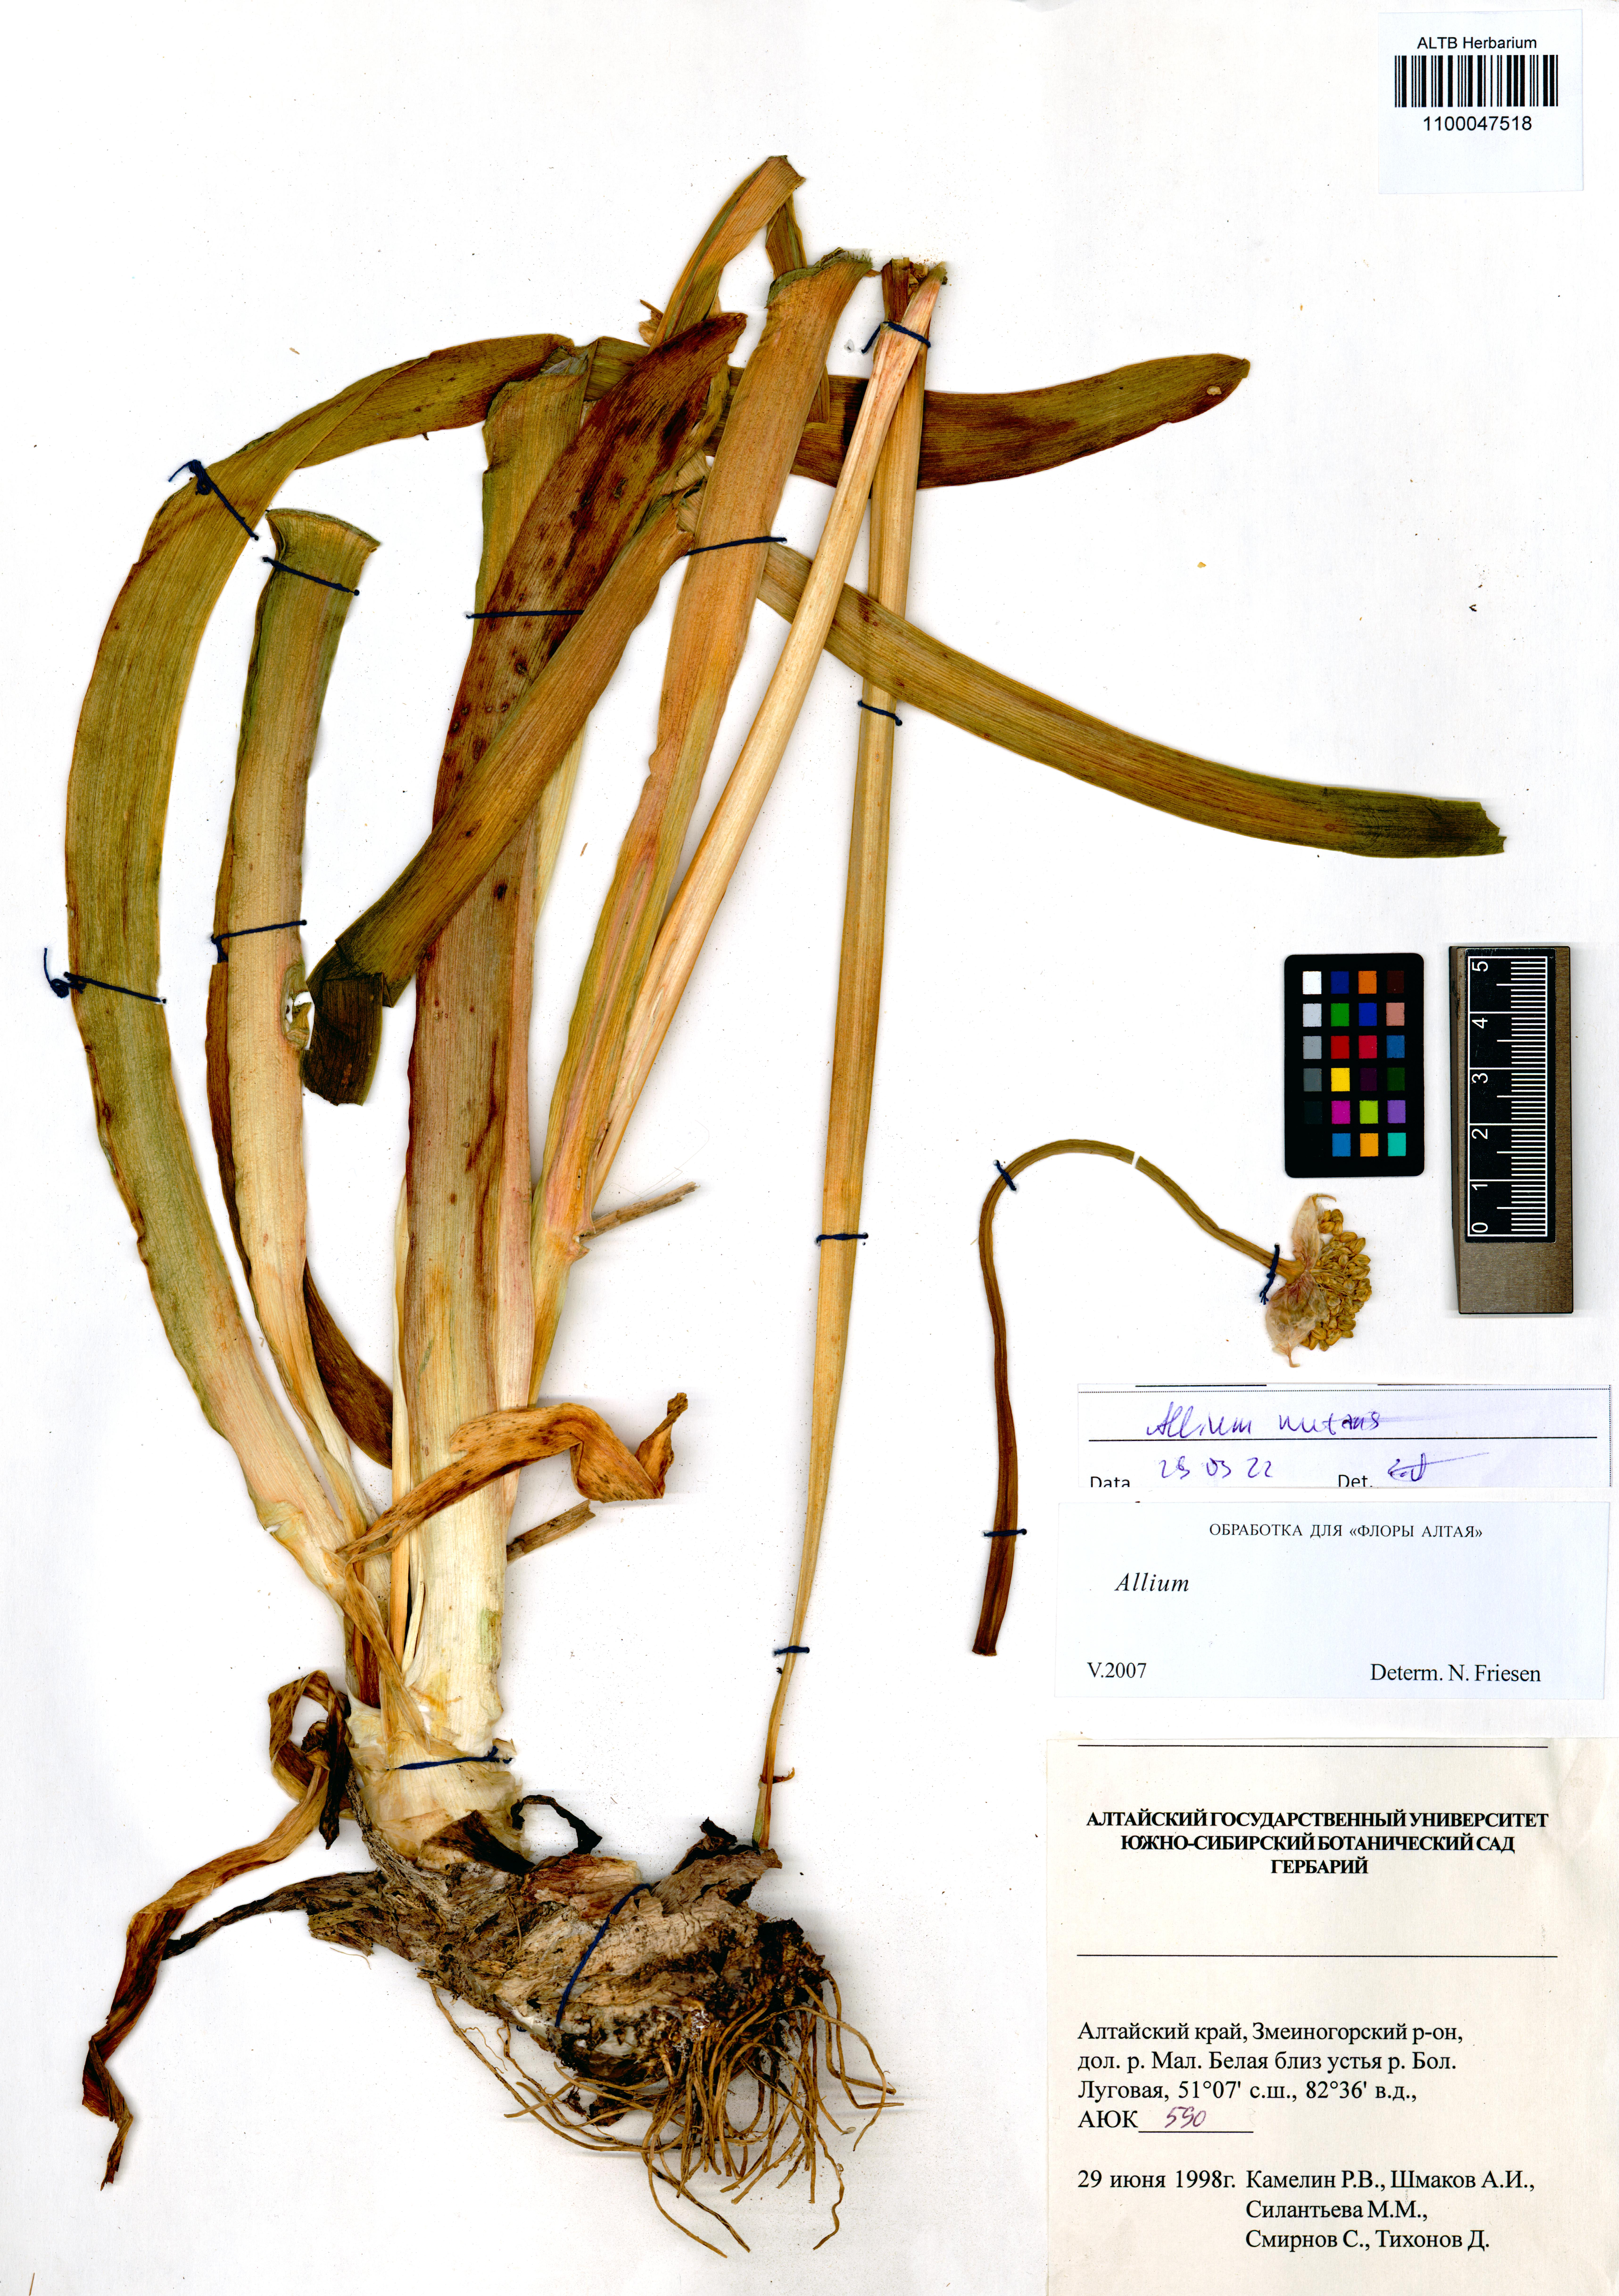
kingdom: Plantae
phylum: Tracheophyta
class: Liliopsida
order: Asparagales
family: Amaryllidaceae
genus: Allium
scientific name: Allium nutans
